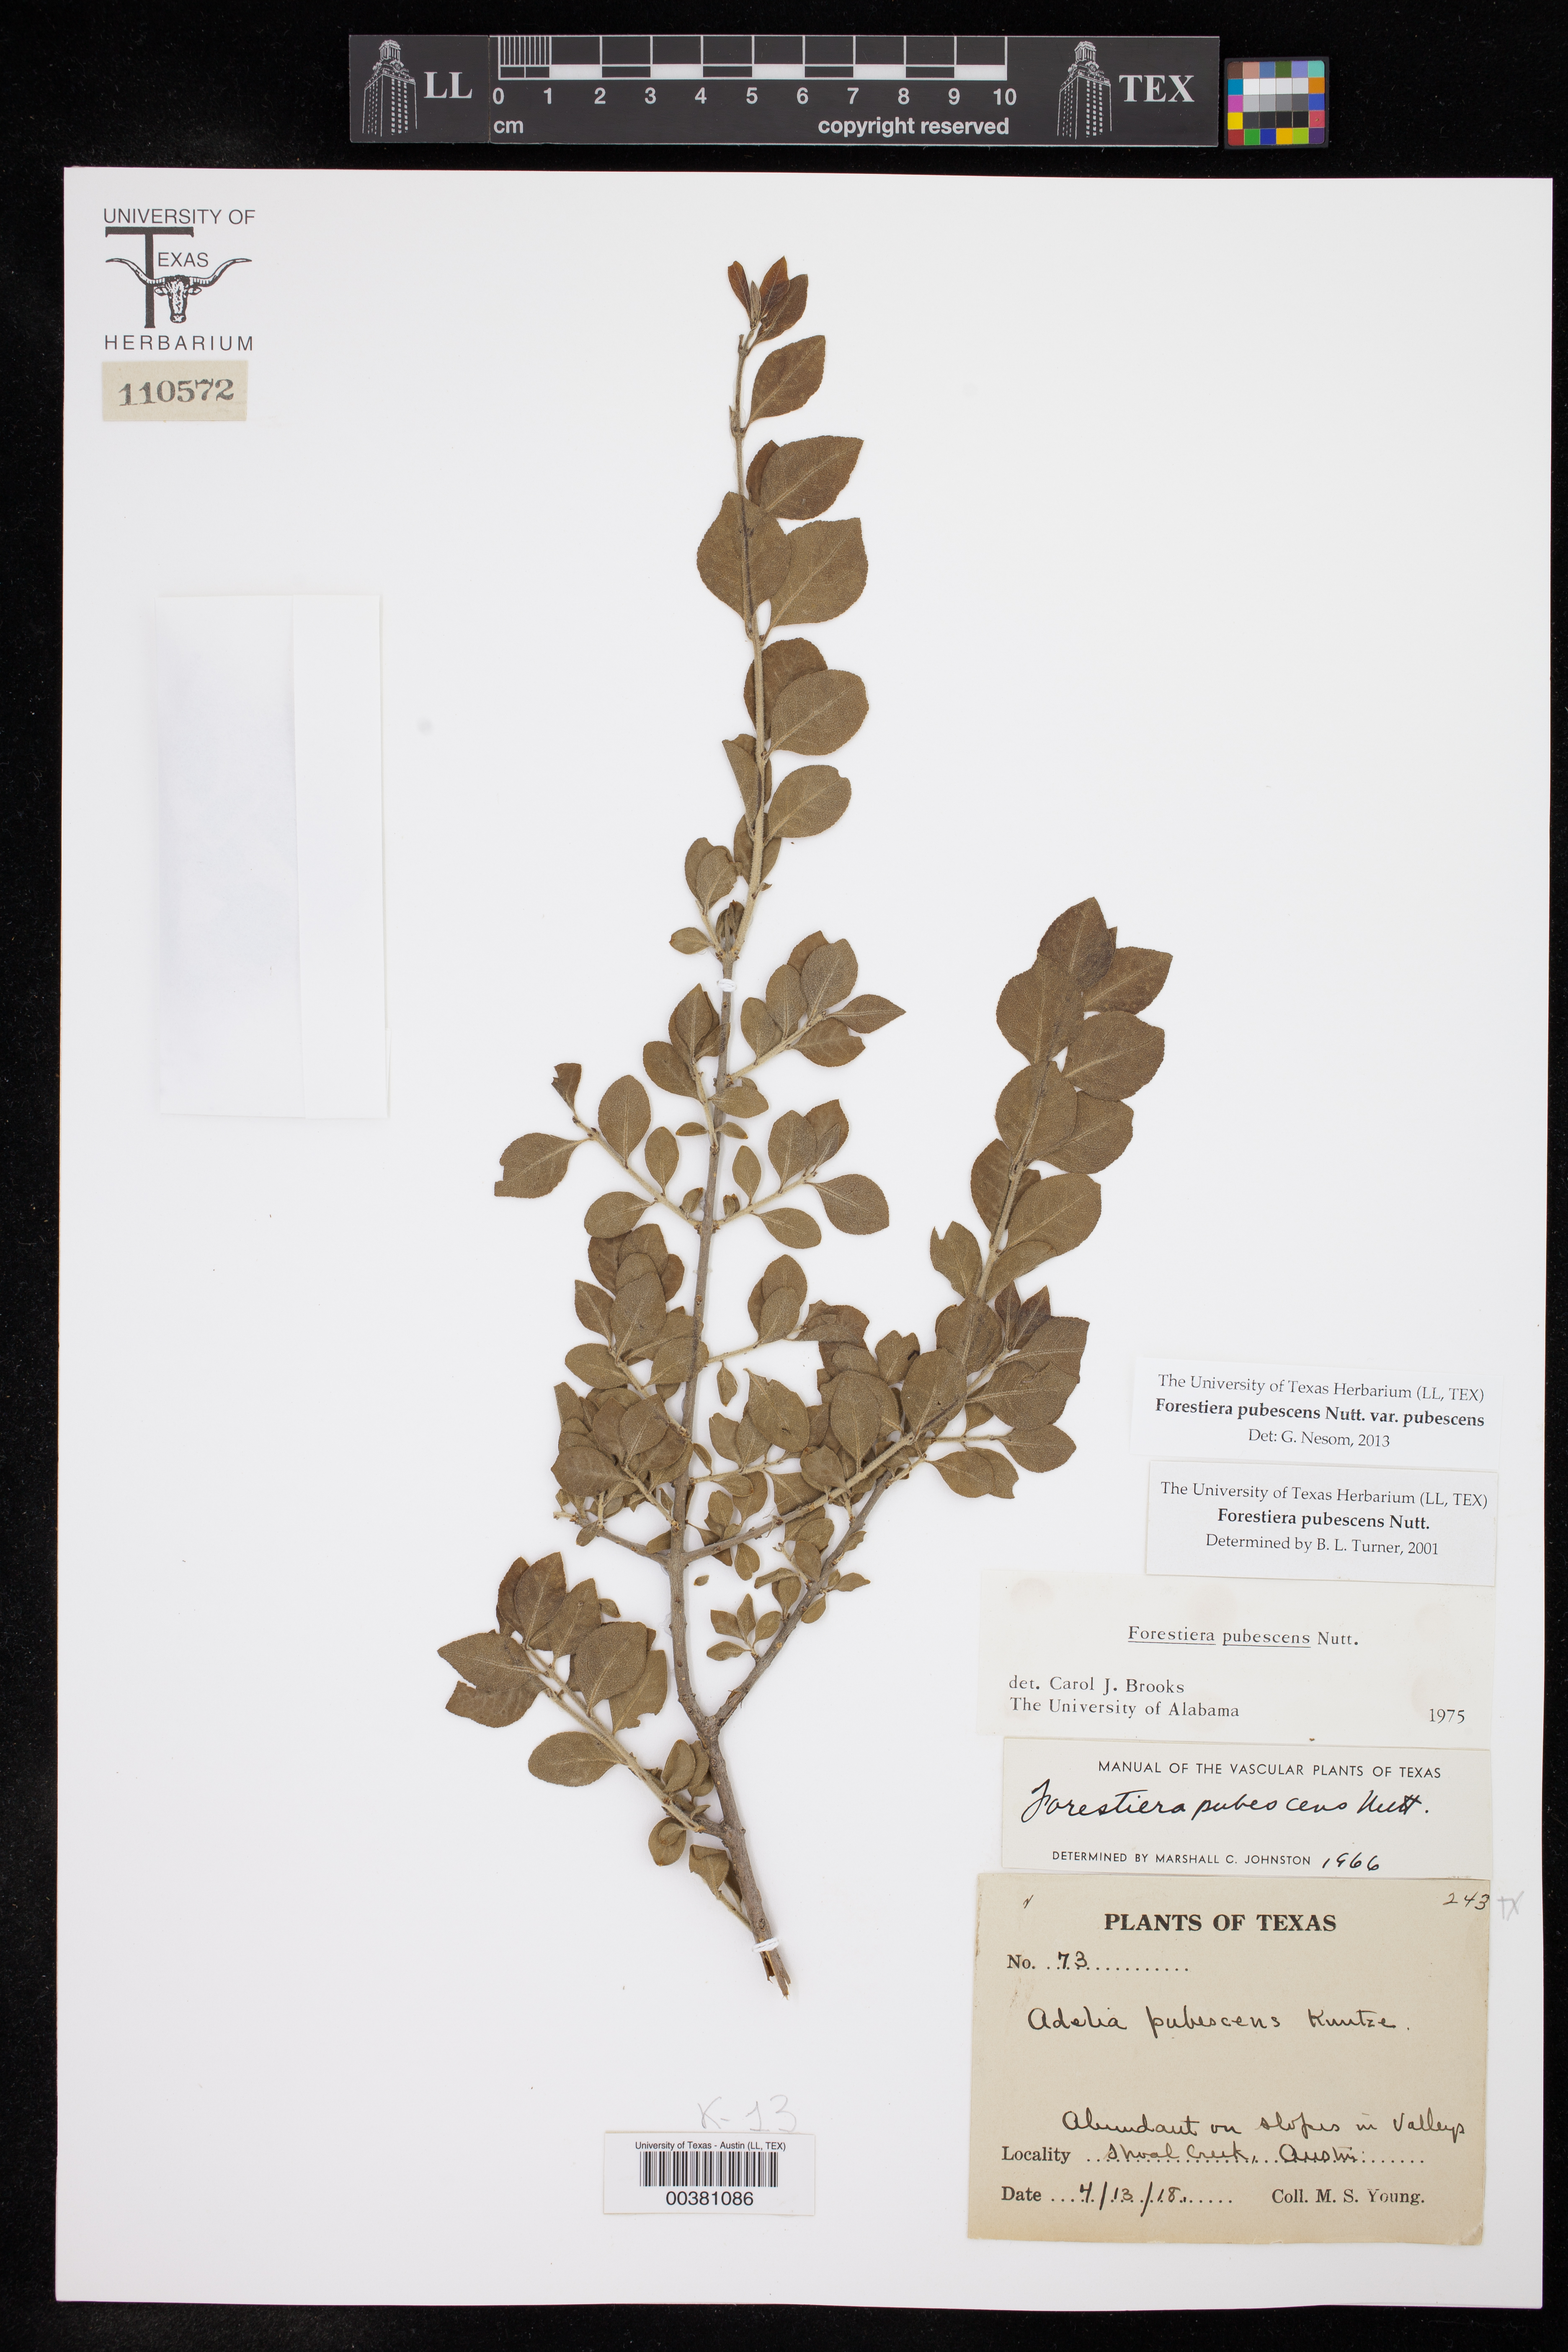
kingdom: Plantae
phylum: Tracheophyta
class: Magnoliopsida
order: Lamiales
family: Oleaceae
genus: Forestiera
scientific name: Forestiera pubescens
